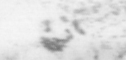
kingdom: Animalia
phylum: Chordata
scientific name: Chordata
